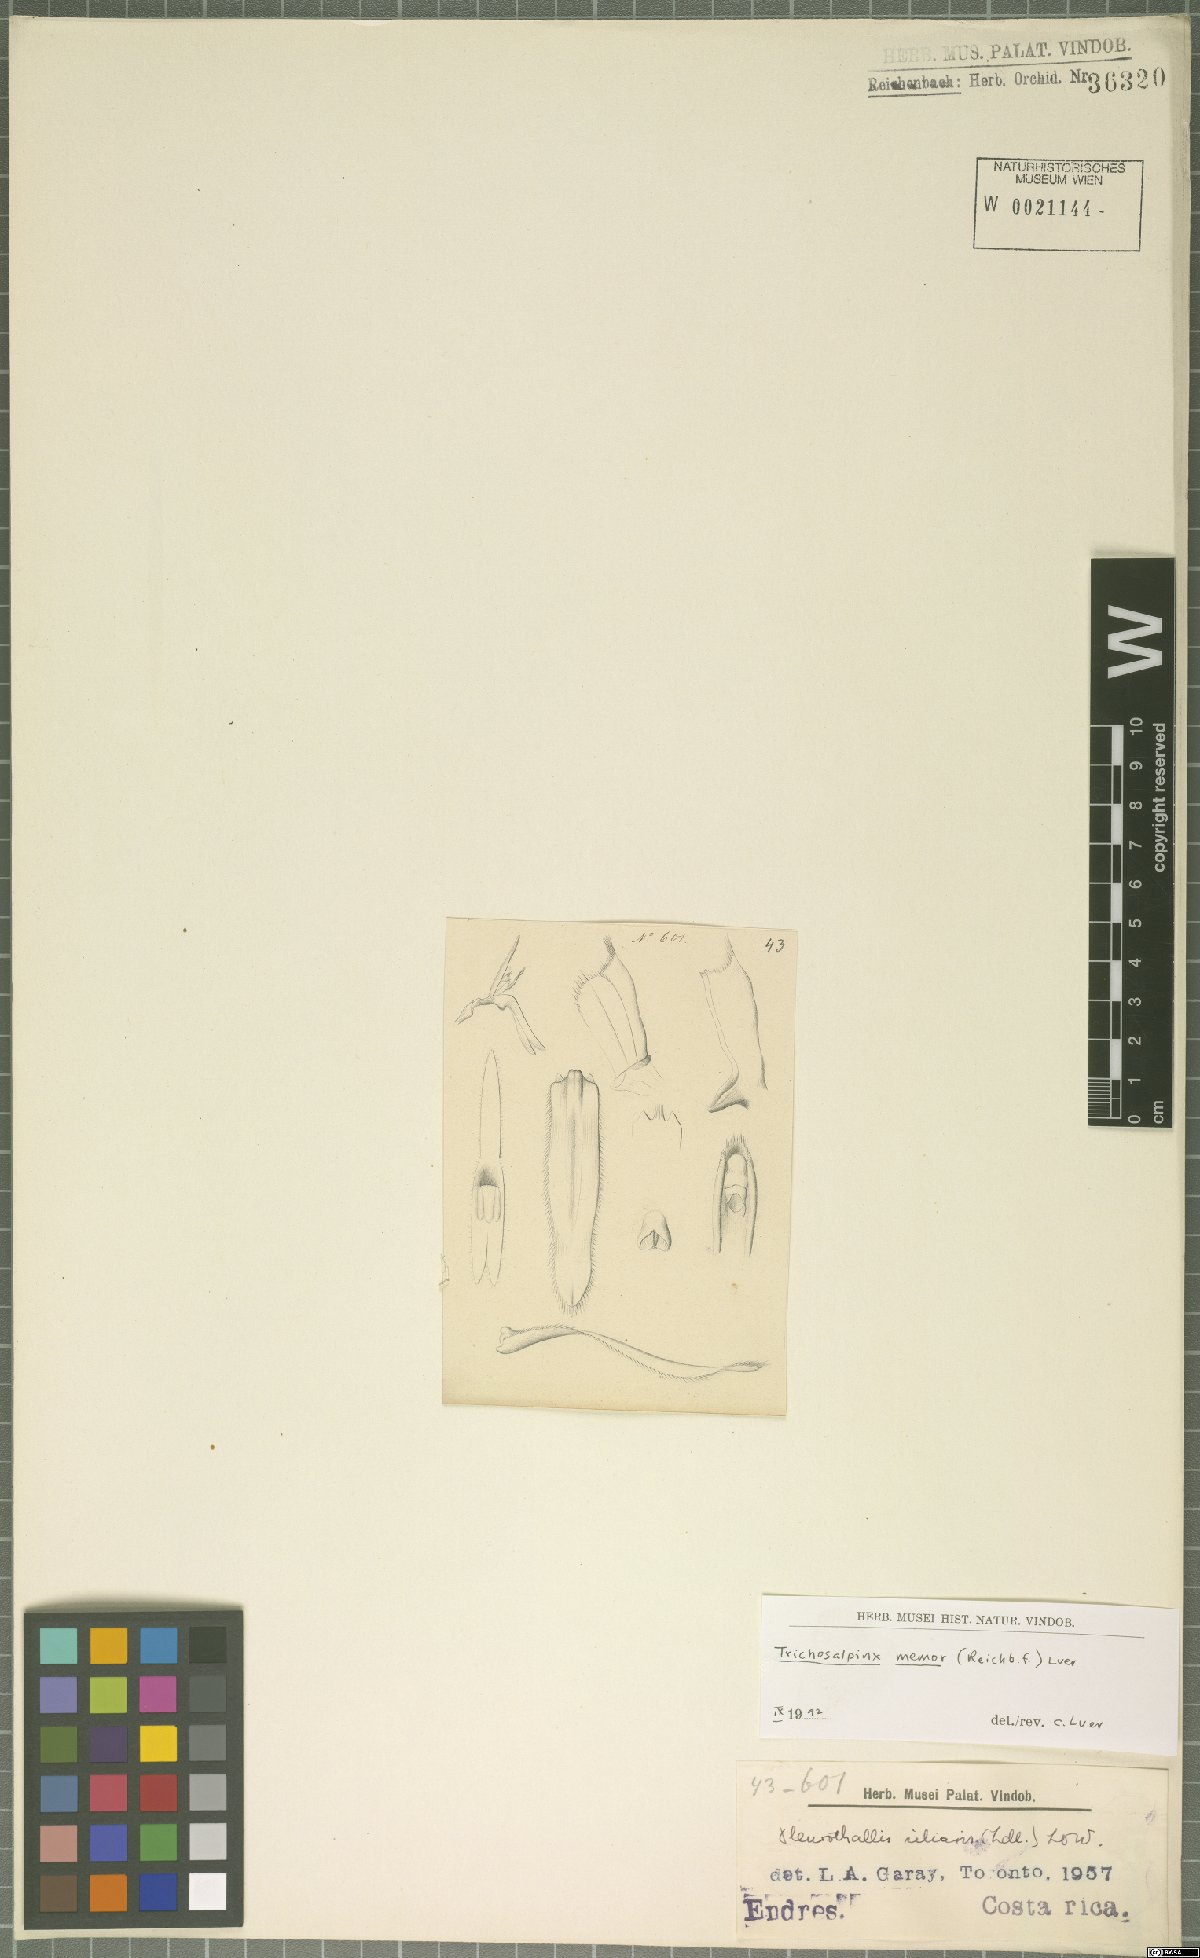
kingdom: Plantae
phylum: Tracheophyta
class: Liliopsida
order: Asparagales
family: Orchidaceae
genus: Trichosalpinx
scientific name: Trichosalpinx memor
